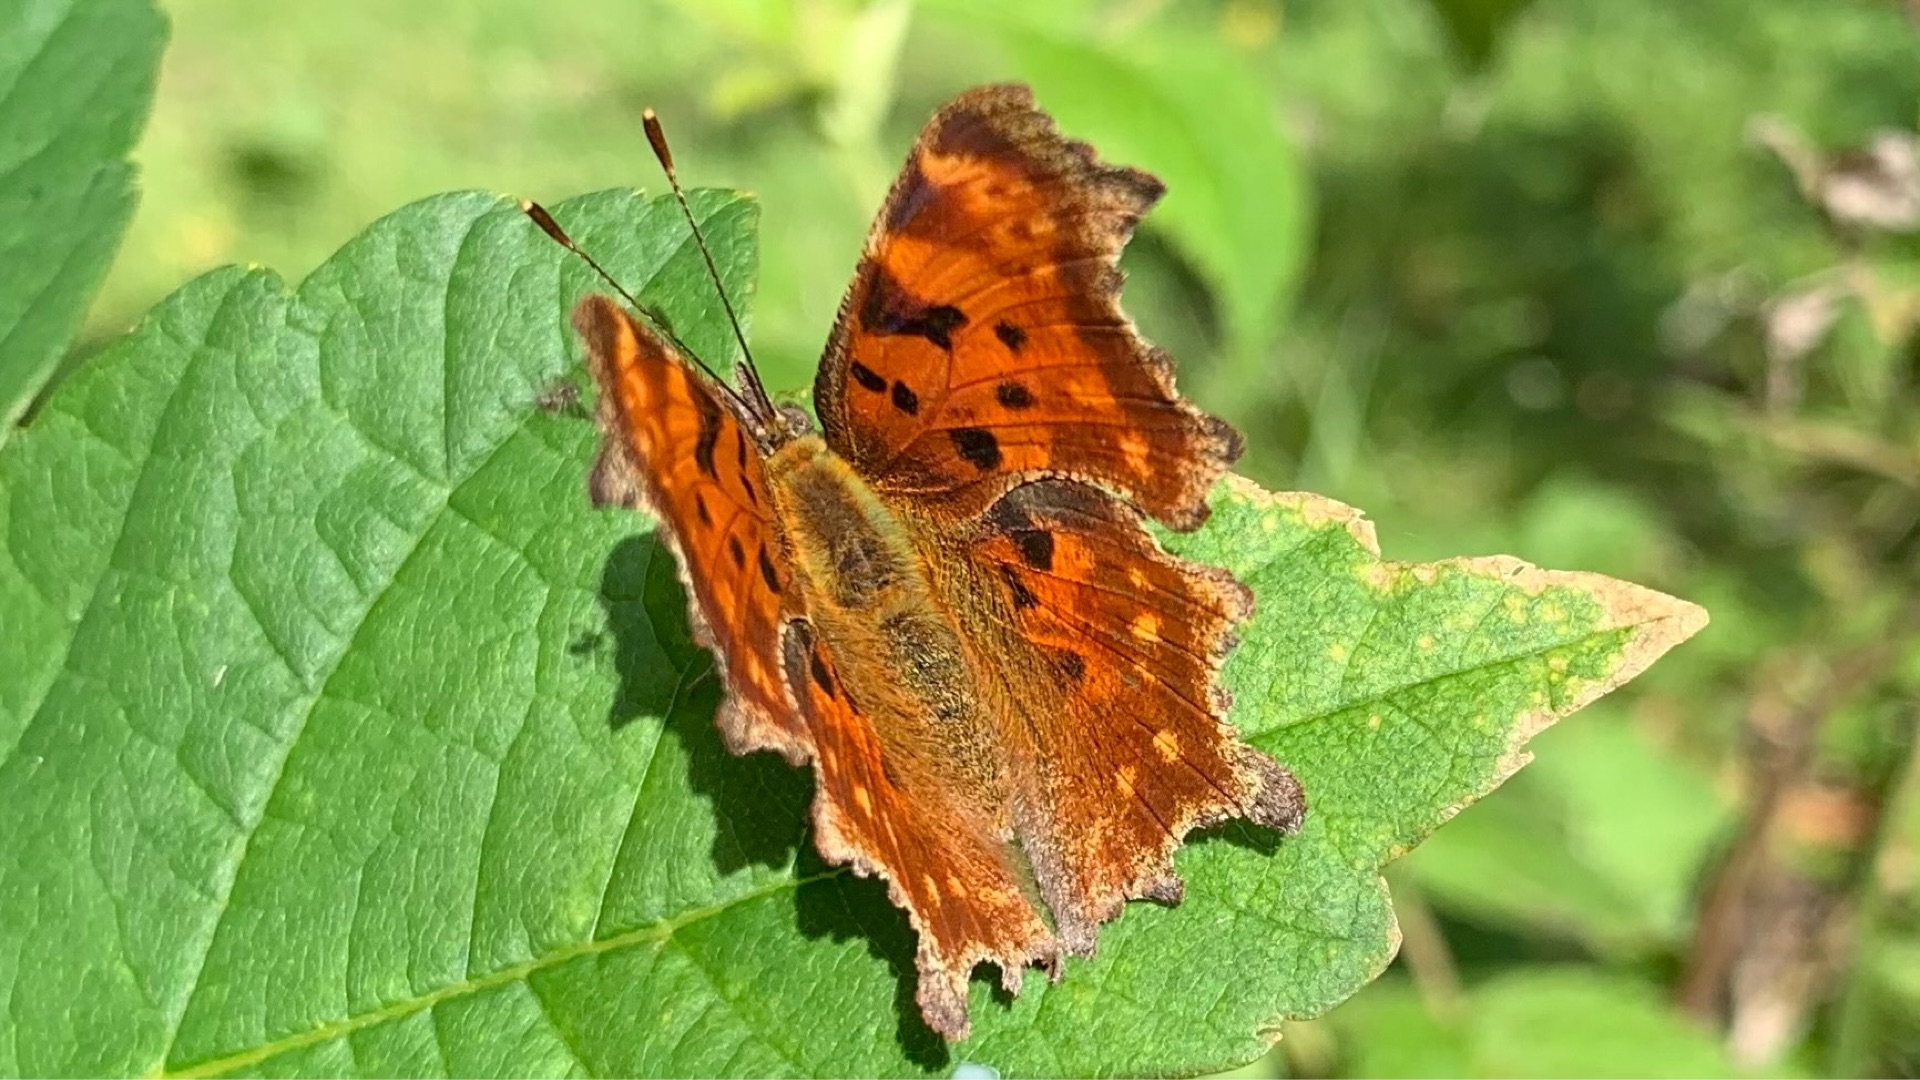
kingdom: Animalia
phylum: Arthropoda
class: Insecta
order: Lepidoptera
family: Nymphalidae
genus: Polygonia
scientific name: Polygonia c-album
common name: Det hvide C
